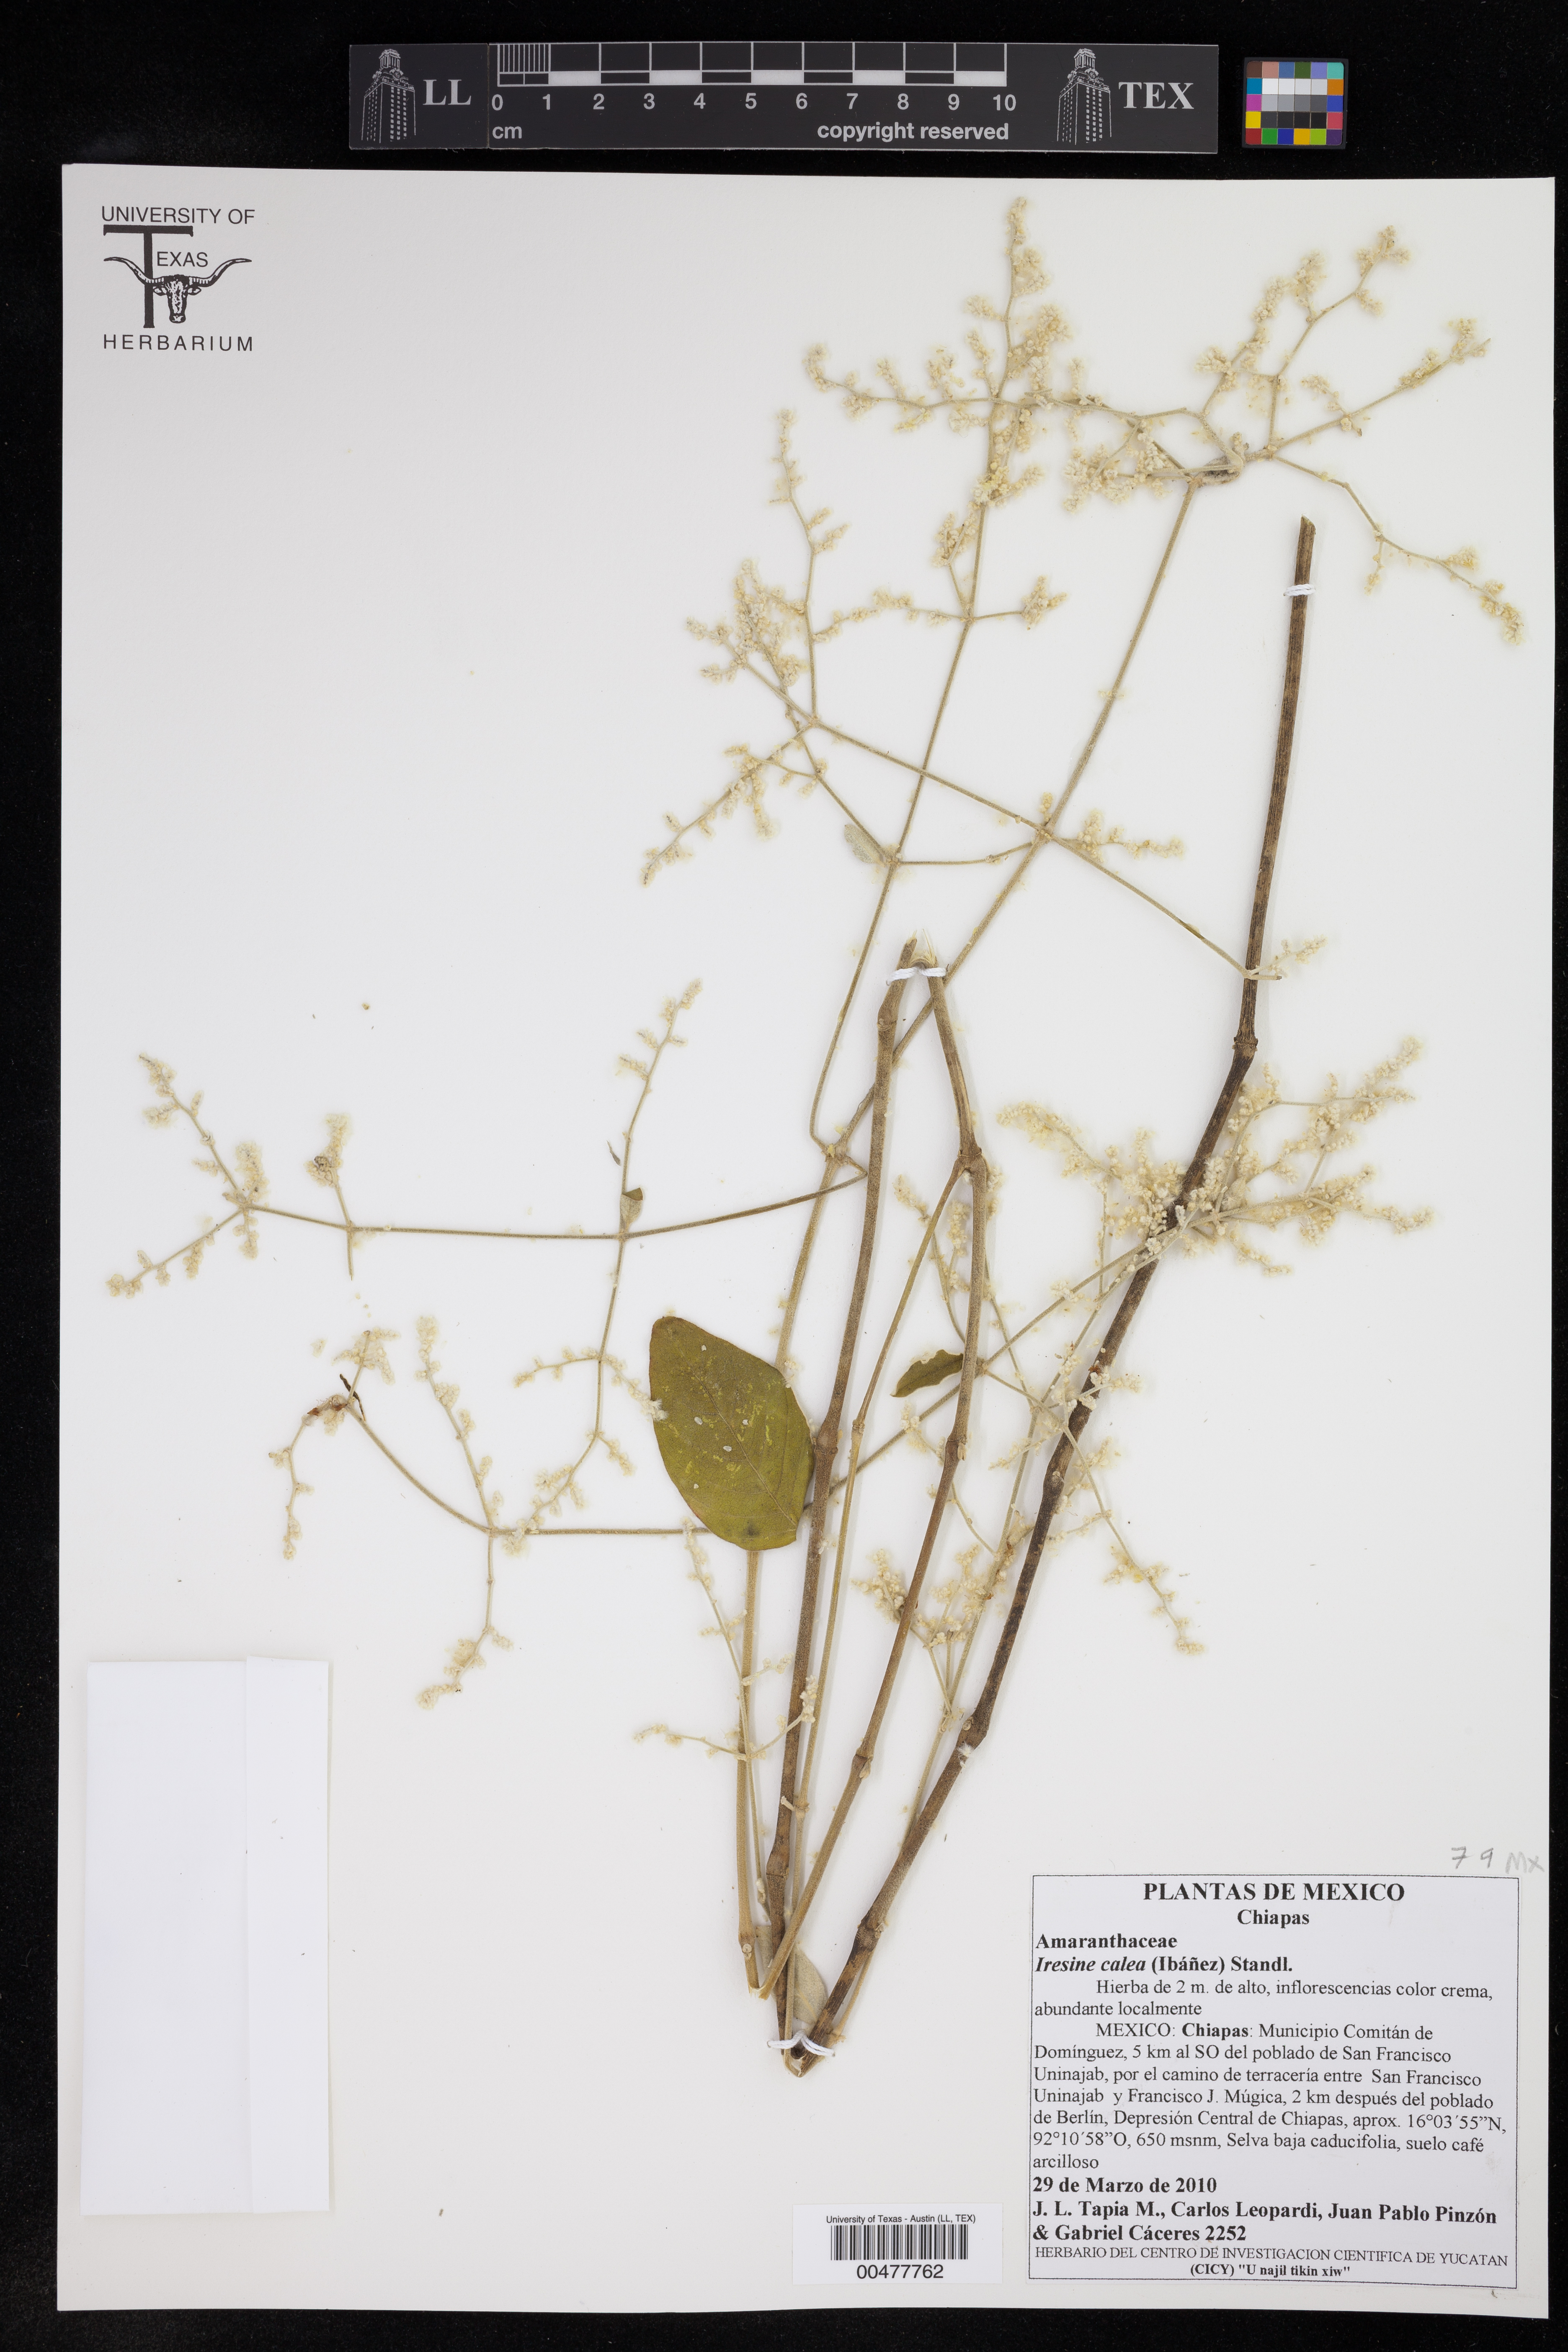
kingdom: Plantae
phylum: Tracheophyta
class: Magnoliopsida
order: Caryophyllales
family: Amaranthaceae
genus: Iresine
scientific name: Iresine latifolia
